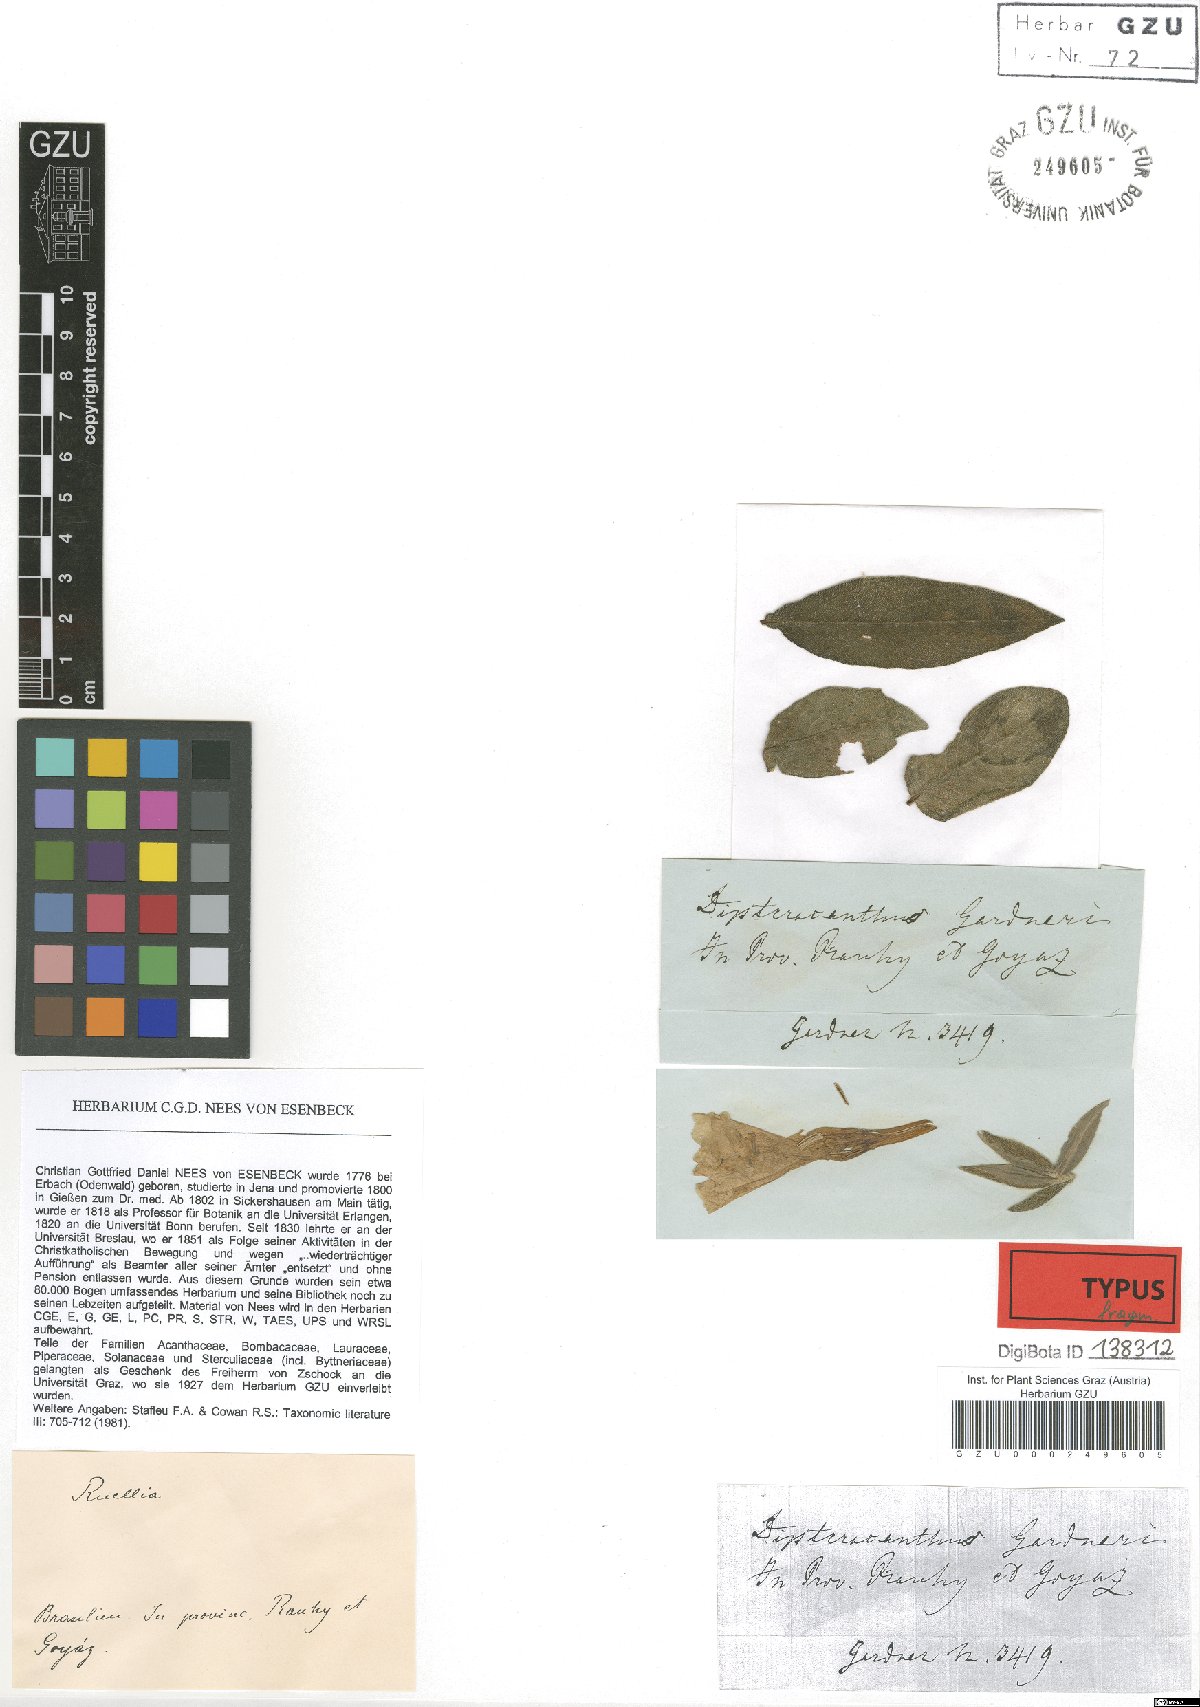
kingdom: Plantae
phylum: Tracheophyta
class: Magnoliopsida
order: Lamiales
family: Acanthaceae
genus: Ruellia
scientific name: Ruellia Dipteracanthus gardneri
